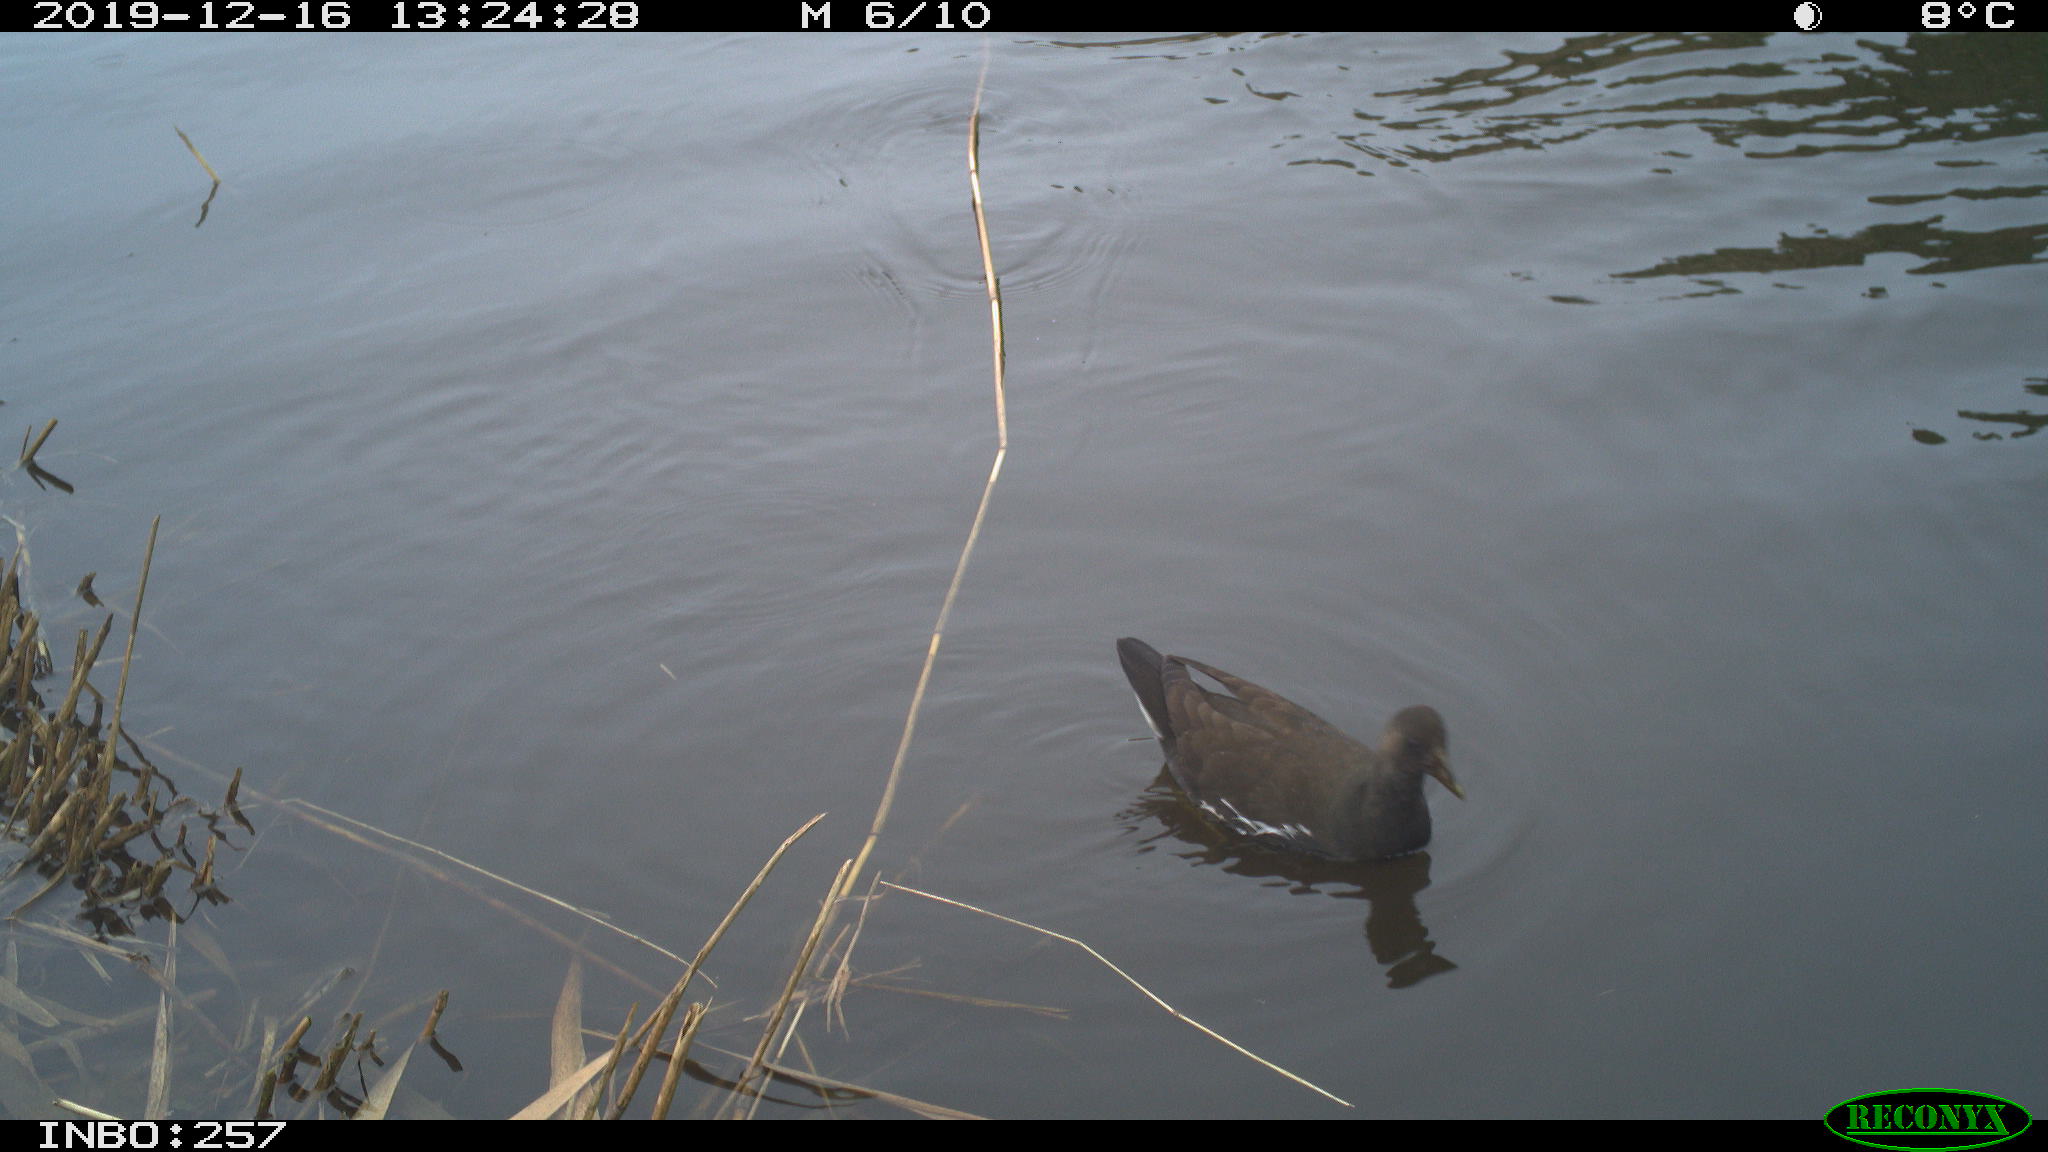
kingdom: Animalia
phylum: Chordata
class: Aves
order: Gruiformes
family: Rallidae
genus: Gallinula
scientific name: Gallinula chloropus
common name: Common moorhen
